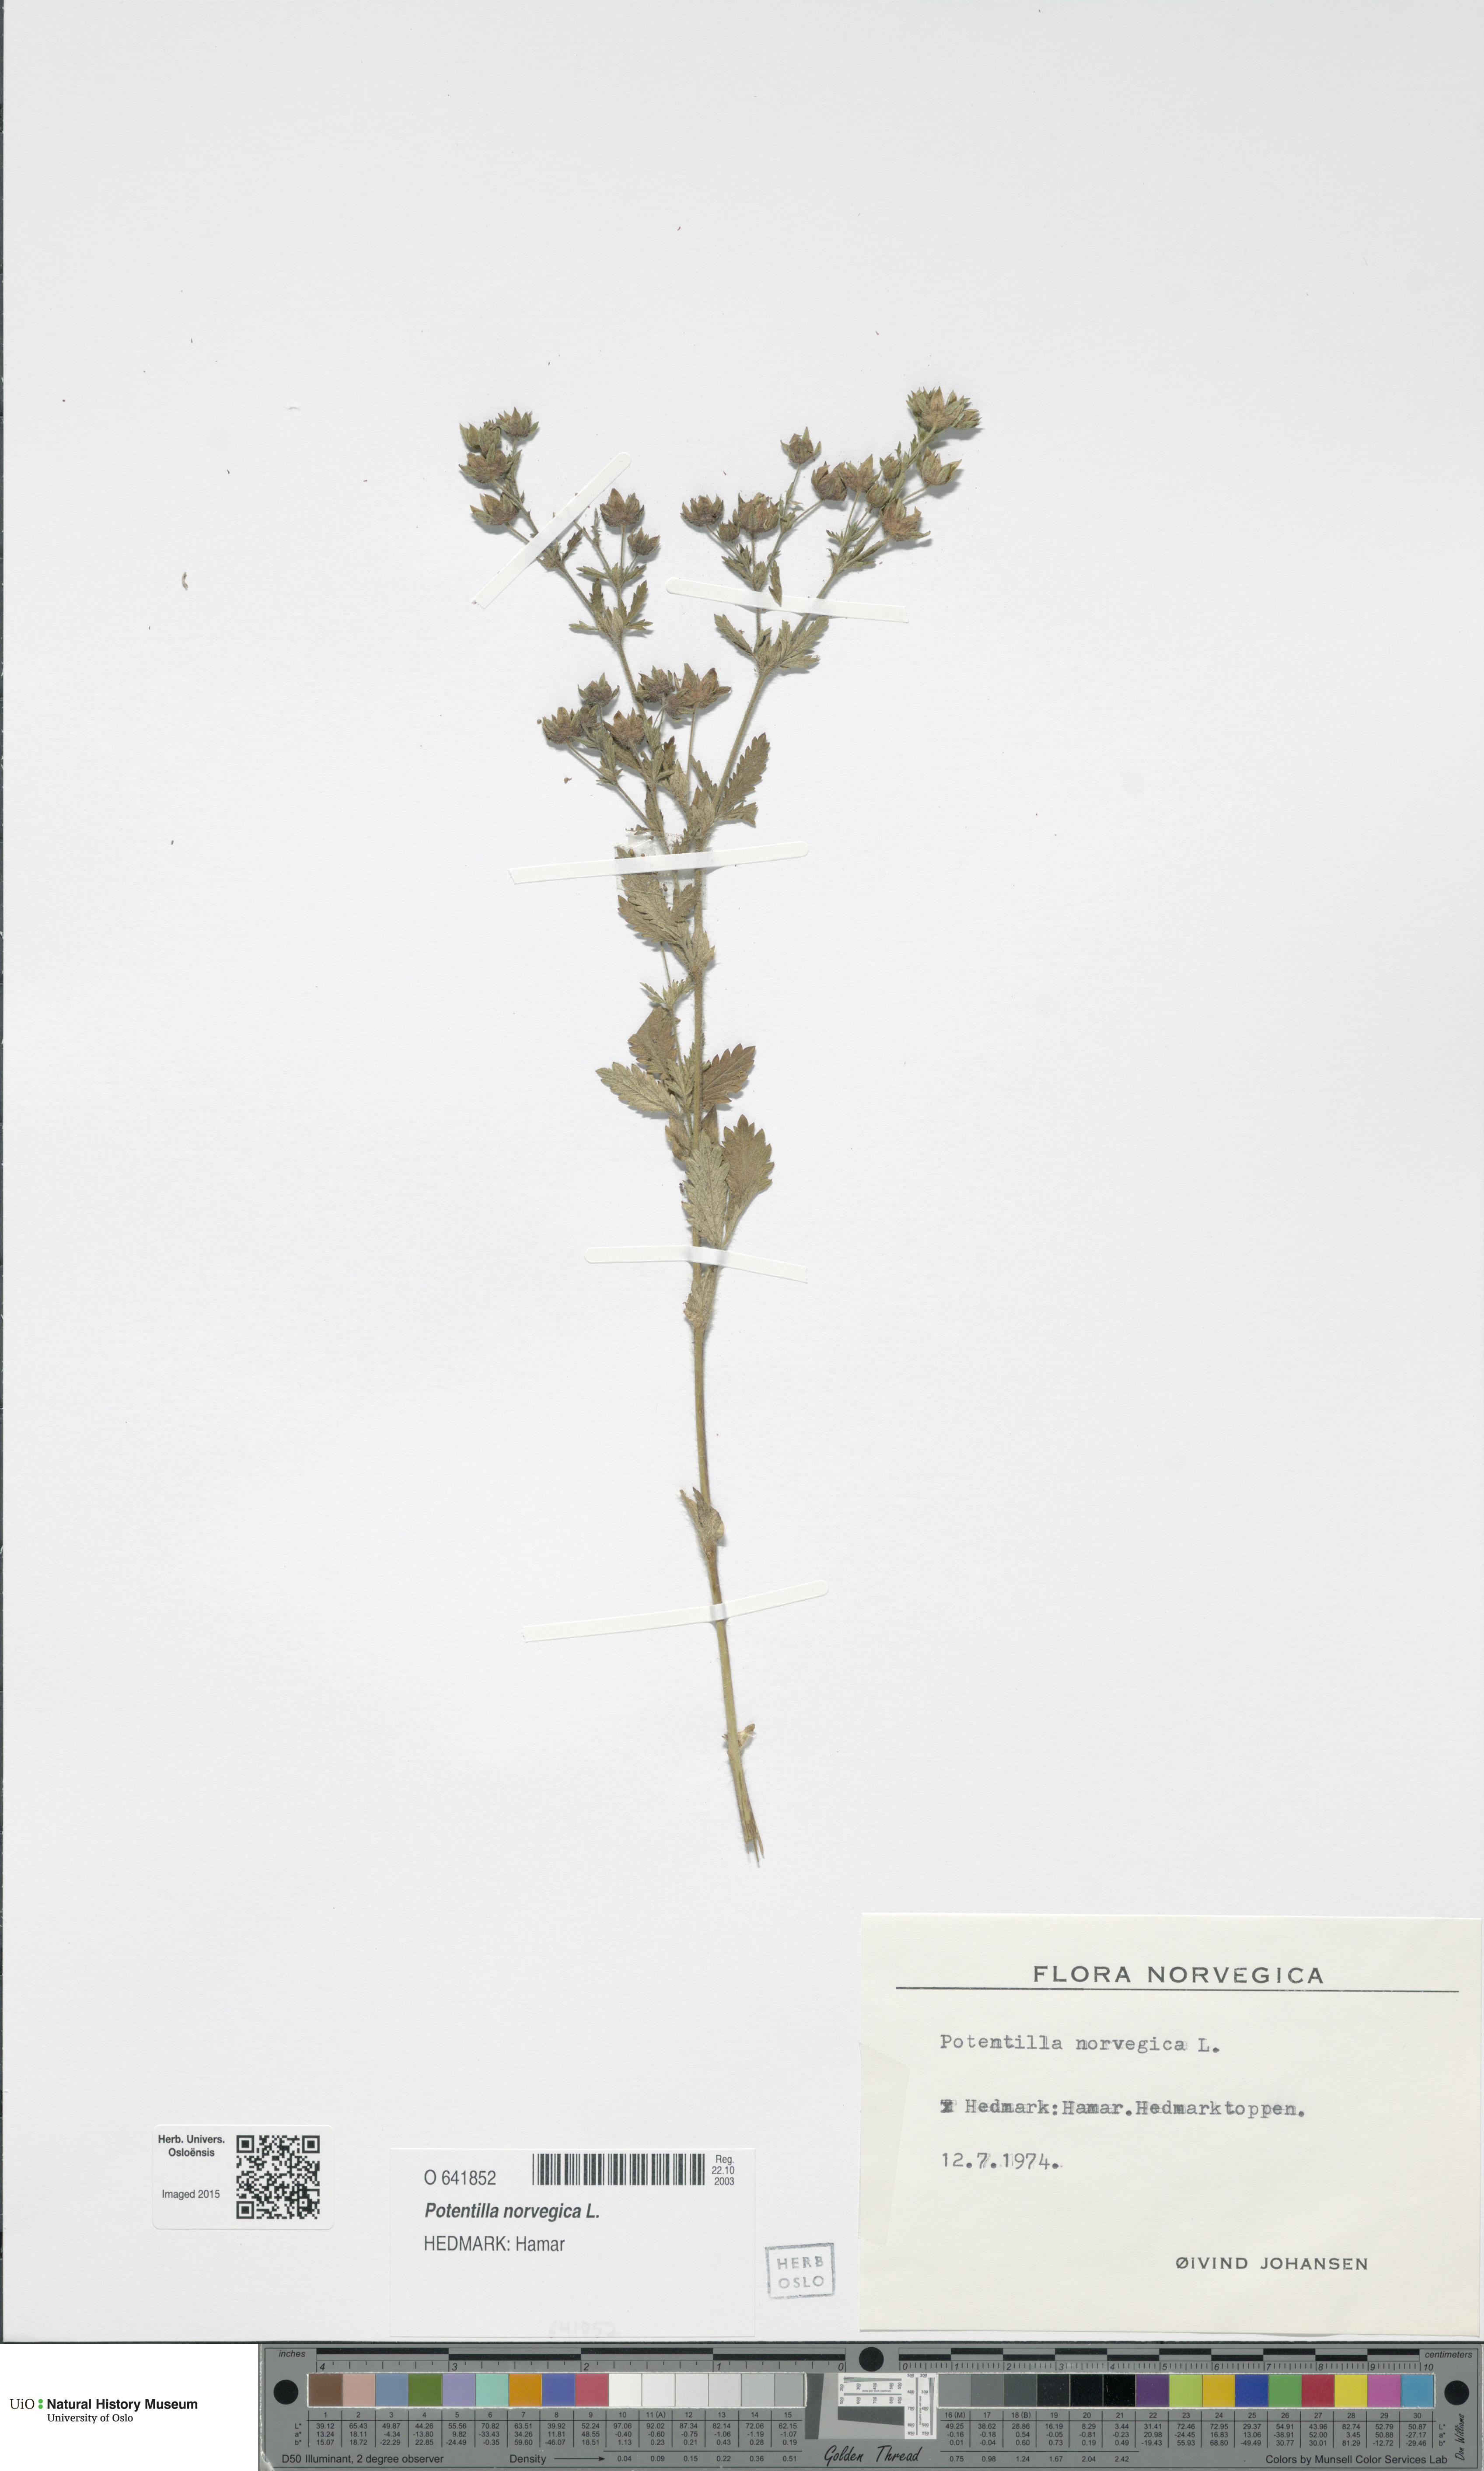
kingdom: Plantae
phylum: Tracheophyta
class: Magnoliopsida
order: Rosales
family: Rosaceae
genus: Potentilla
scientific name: Potentilla norvegica
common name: Ternate-leaved cinquefoil
